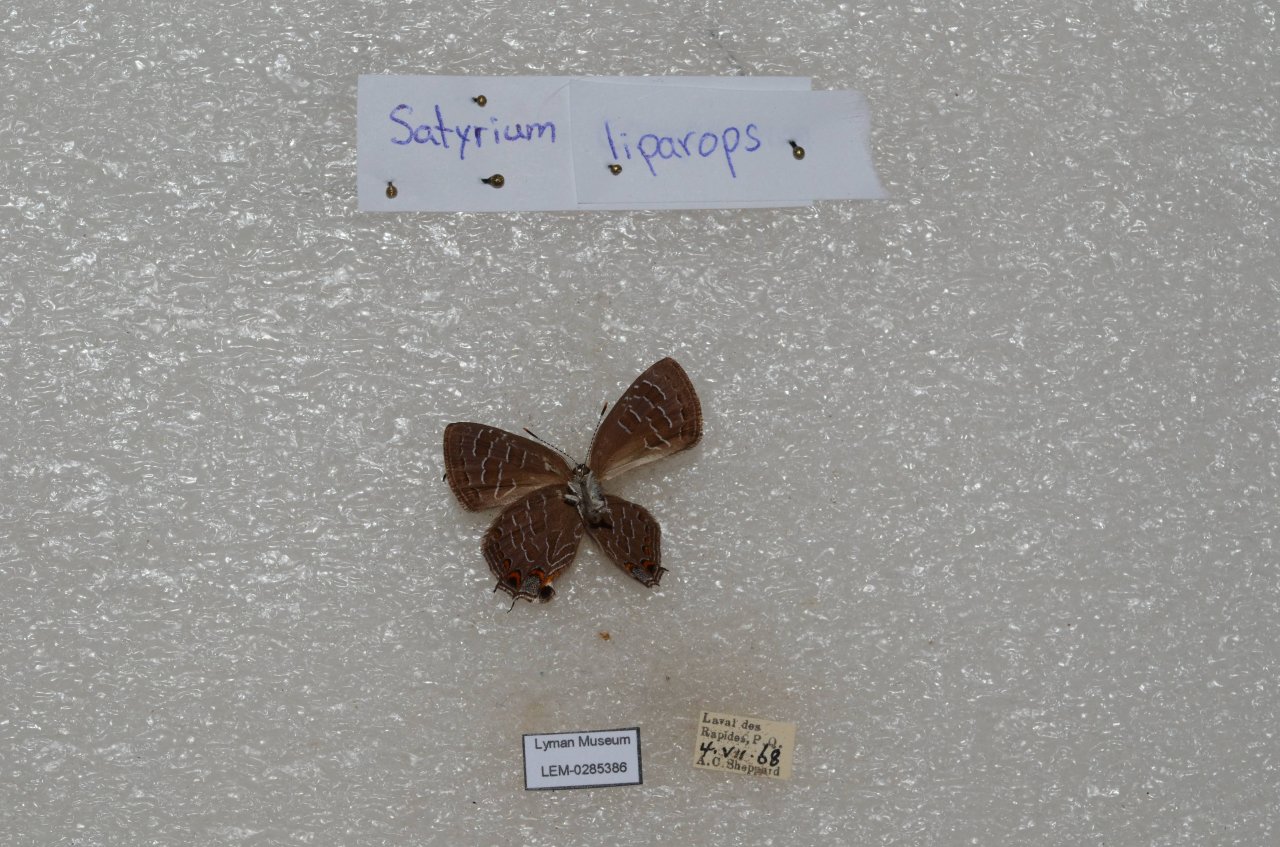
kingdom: Animalia
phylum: Arthropoda
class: Insecta
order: Lepidoptera
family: Lycaenidae
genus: Satyrium
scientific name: Satyrium liparops
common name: Striped Hairstreak
